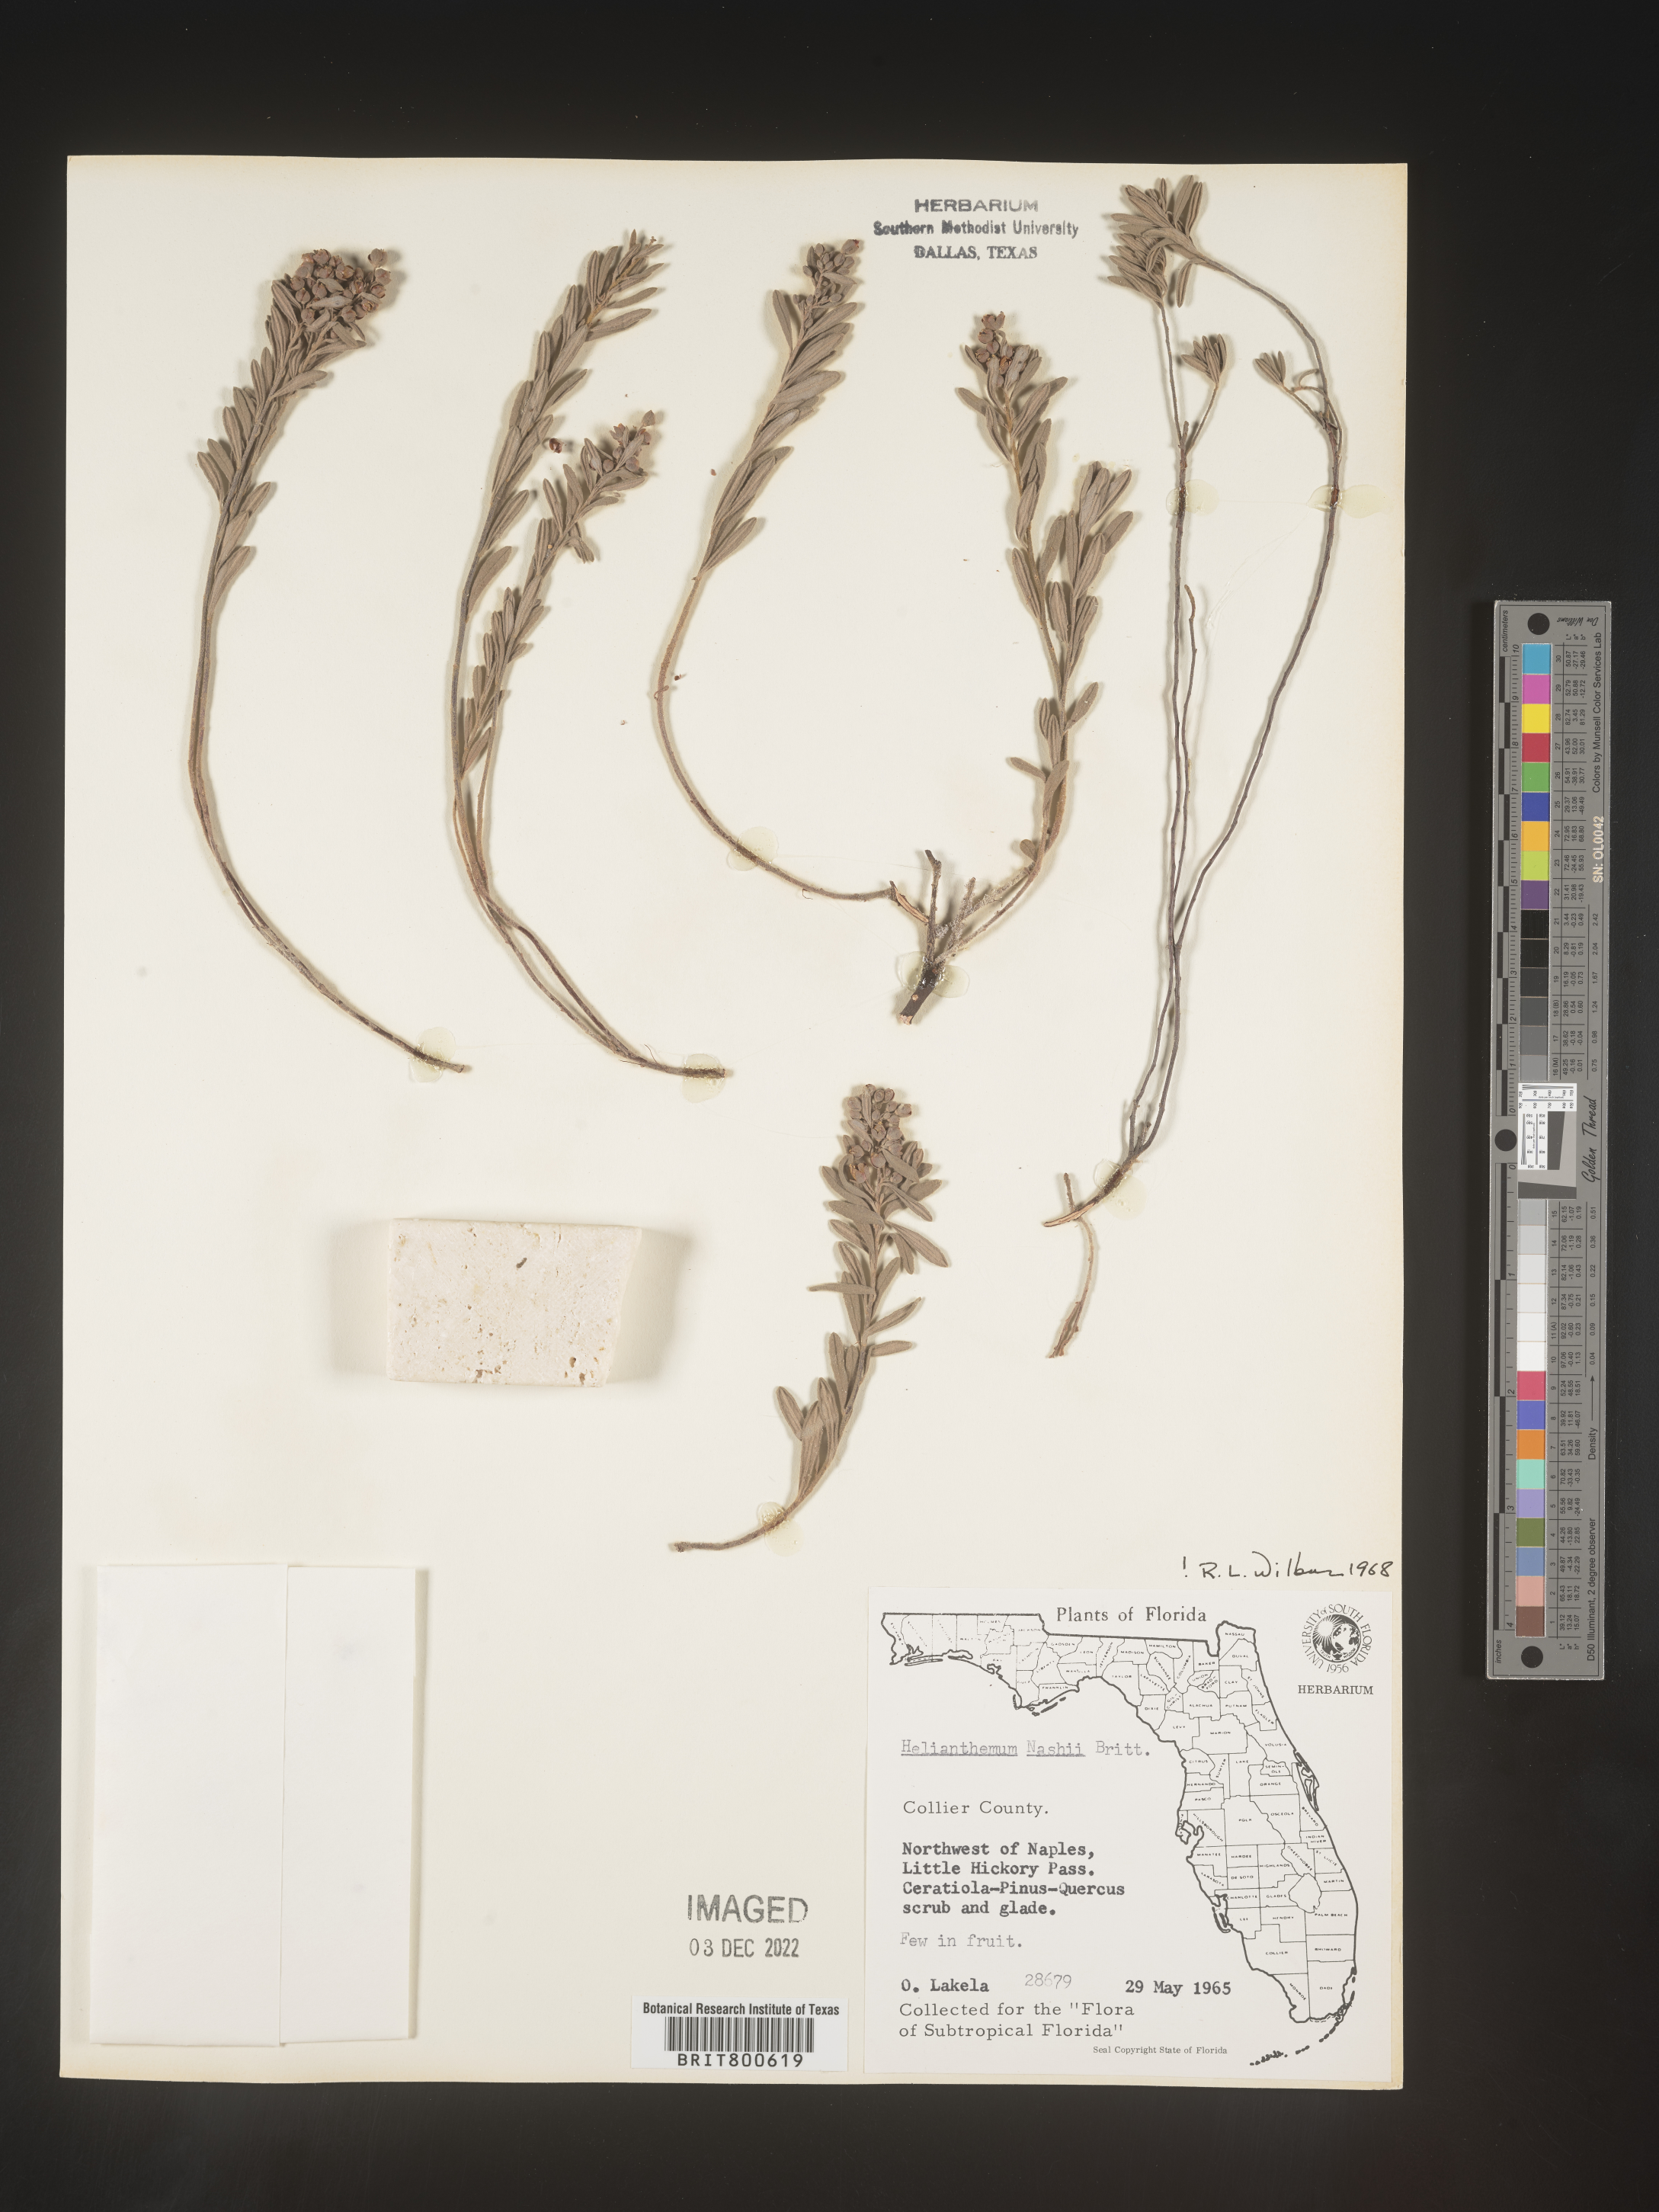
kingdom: Plantae
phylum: Tracheophyta
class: Magnoliopsida
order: Malvales
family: Cistaceae
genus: Helianthemum
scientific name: Helianthemum
